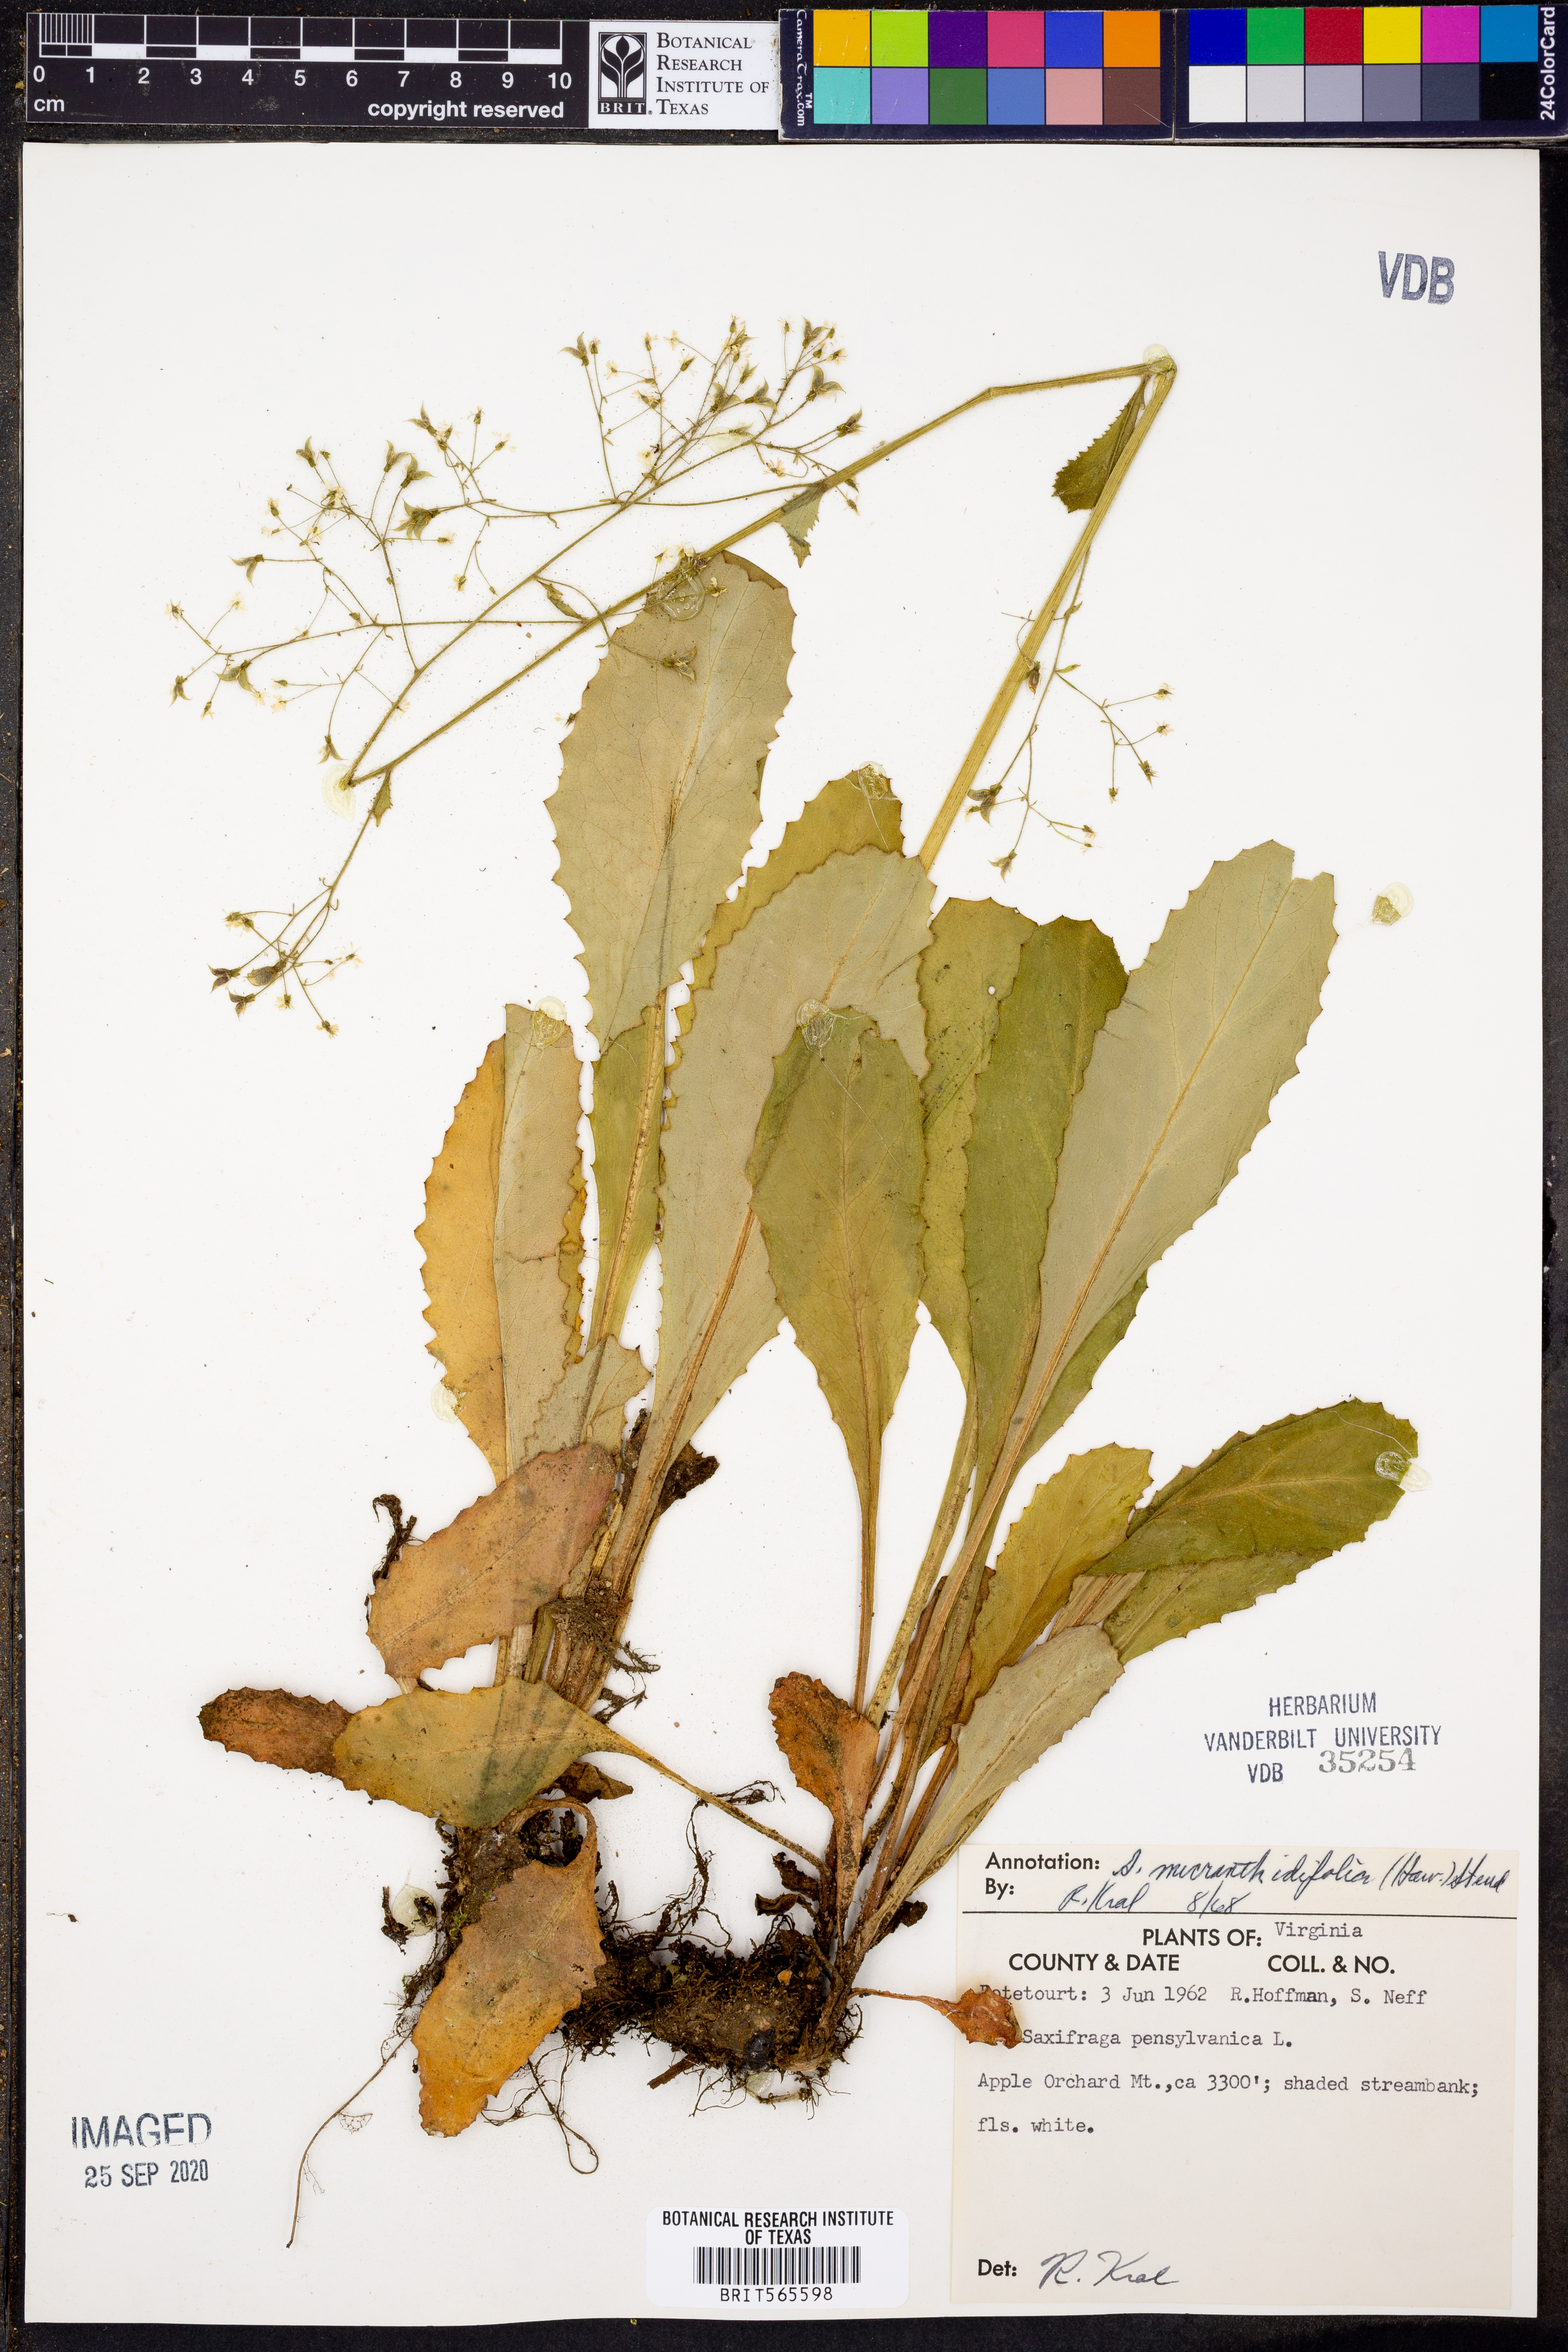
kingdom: Plantae
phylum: Tracheophyta
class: Magnoliopsida
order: Saxifragales
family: Saxifragaceae
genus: Micranthes
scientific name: Micranthes pensylvanica
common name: Marsh saxifrage
